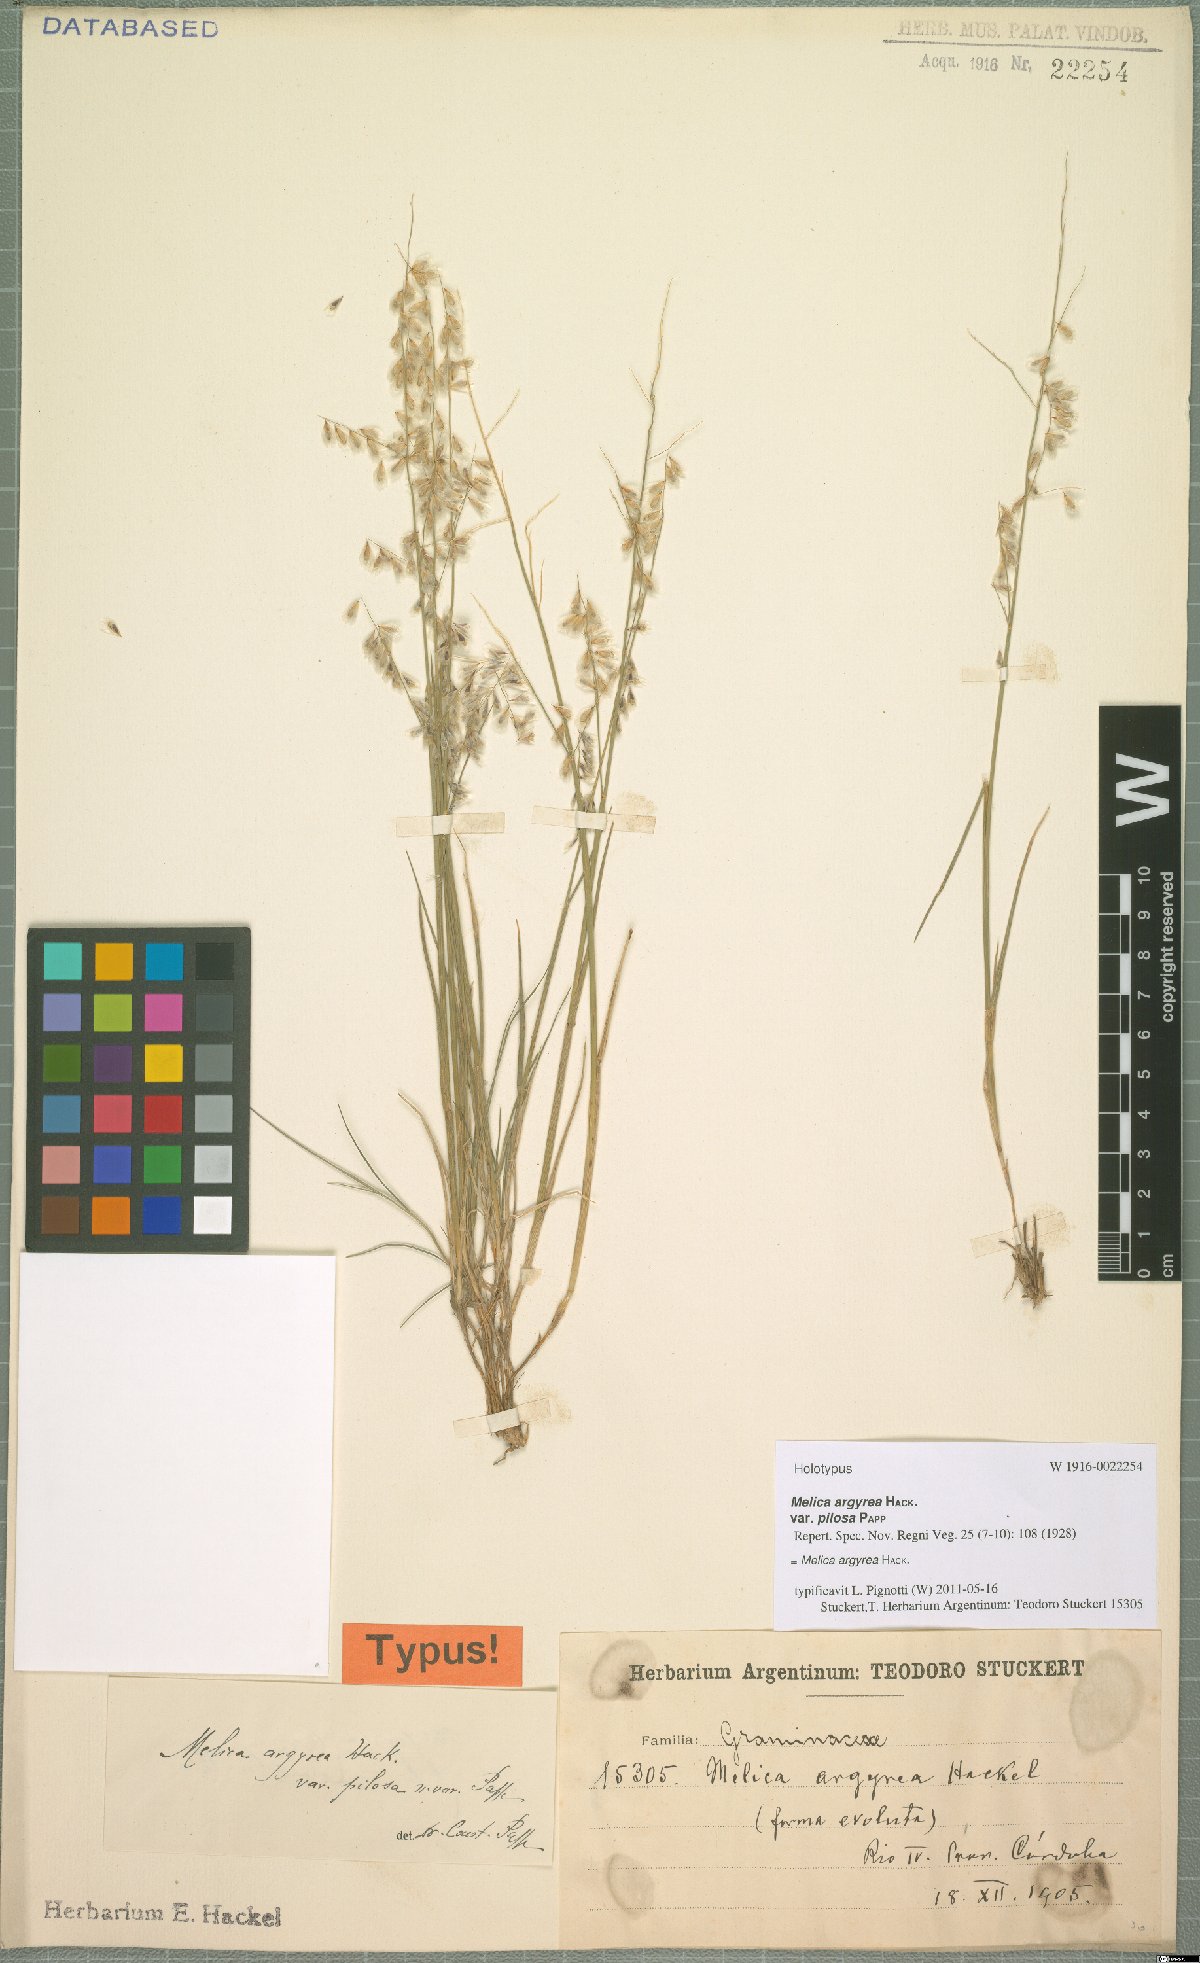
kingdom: Plantae
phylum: Tracheophyta
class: Liliopsida
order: Poales
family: Poaceae
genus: Melica
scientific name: Melica argyrea
